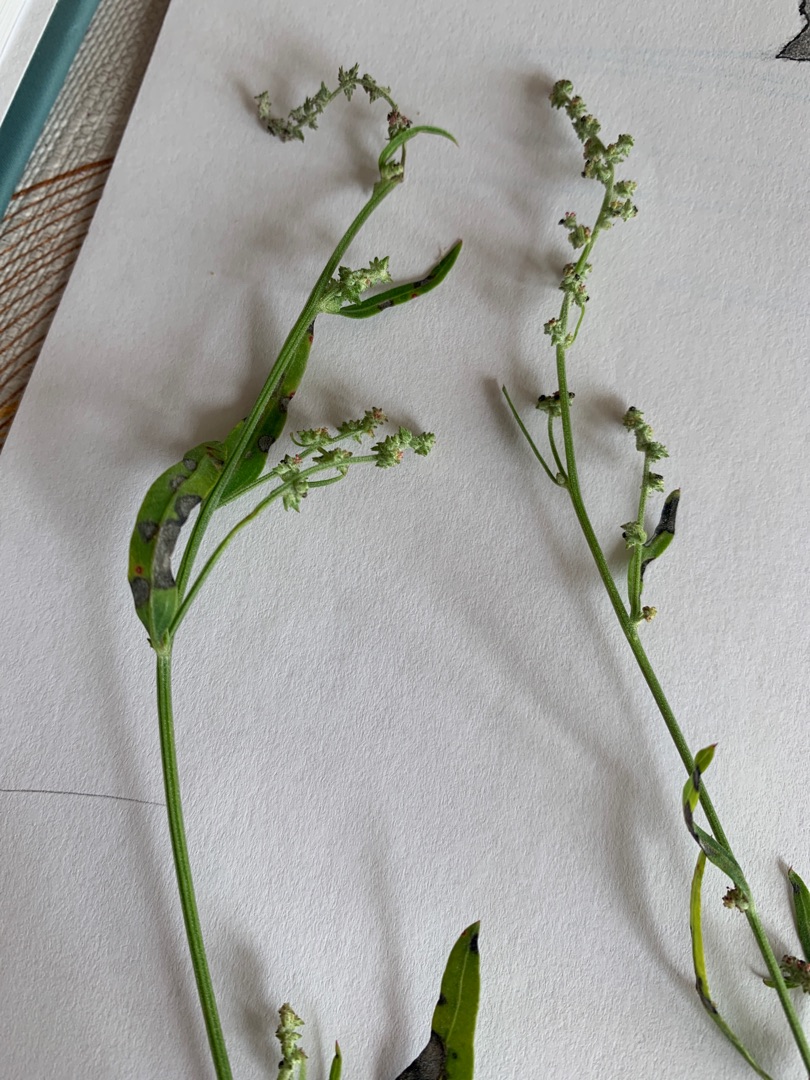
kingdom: Plantae
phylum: Tracheophyta
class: Magnoliopsida
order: Caryophyllales
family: Amaranthaceae
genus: Atriplex
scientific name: Atriplex patula
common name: Svine-mælde
